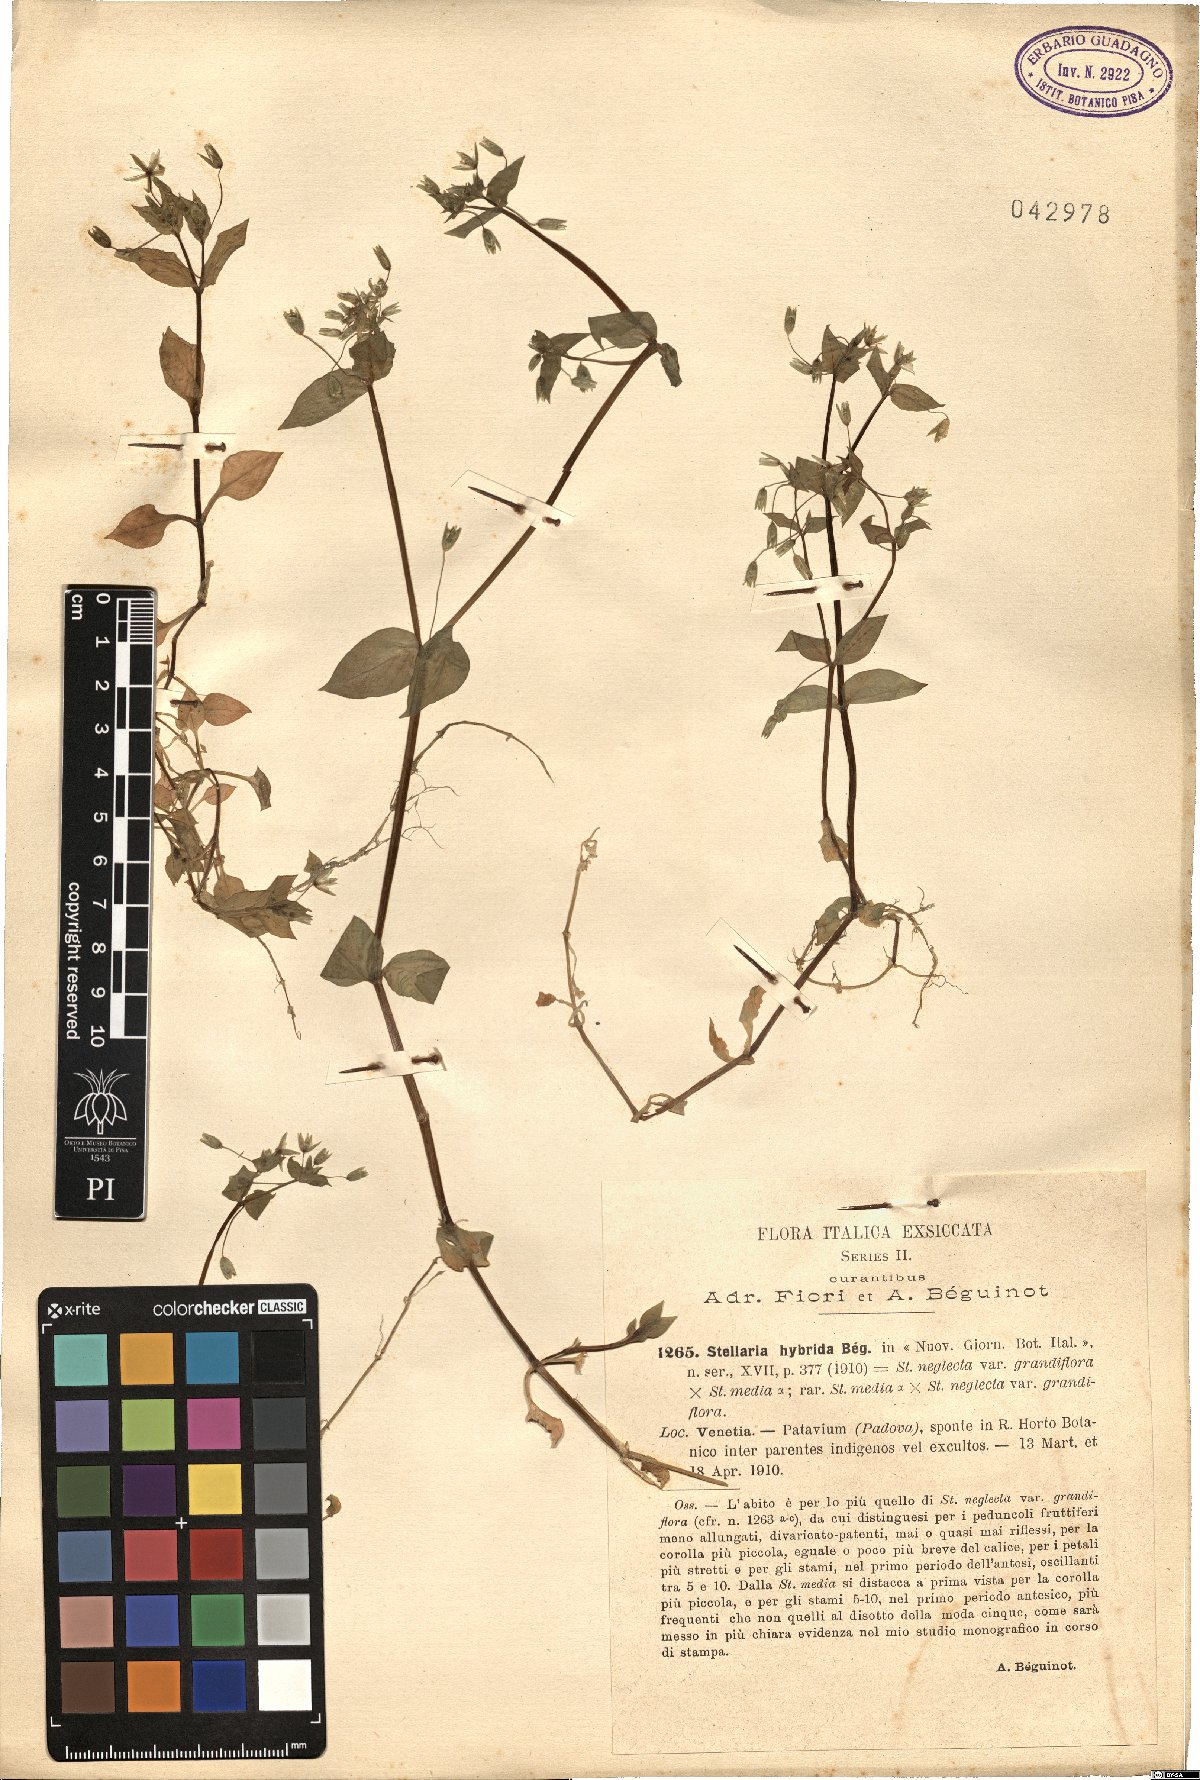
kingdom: Plantae
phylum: Tracheophyta
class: Magnoliopsida
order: Caryophyllales
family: Caryophyllaceae
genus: Stellaria
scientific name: Stellaria ambigua
